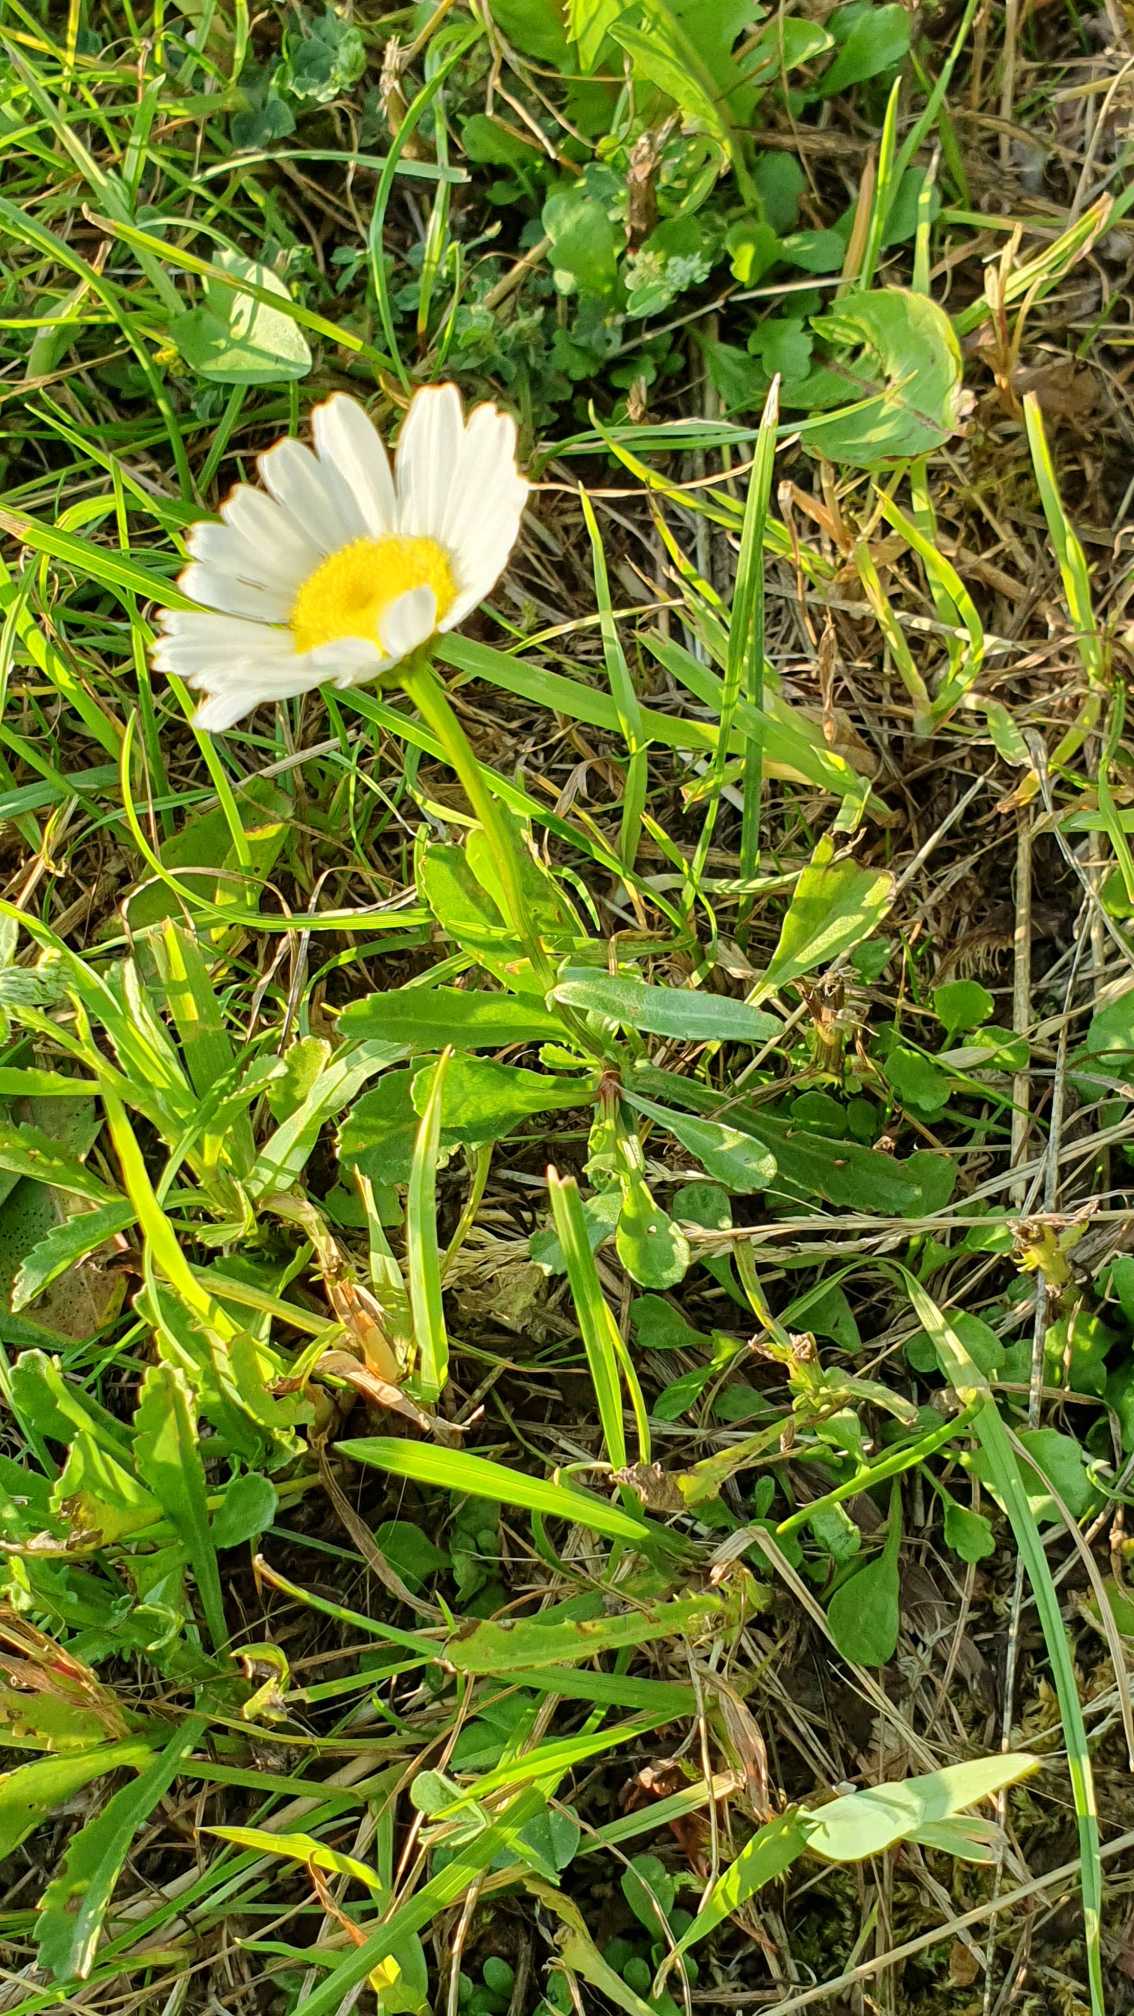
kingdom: Plantae
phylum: Tracheophyta
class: Magnoliopsida
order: Asterales
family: Asteraceae
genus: Leucanthemum
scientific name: Leucanthemum vulgare
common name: Hvid okseøje
